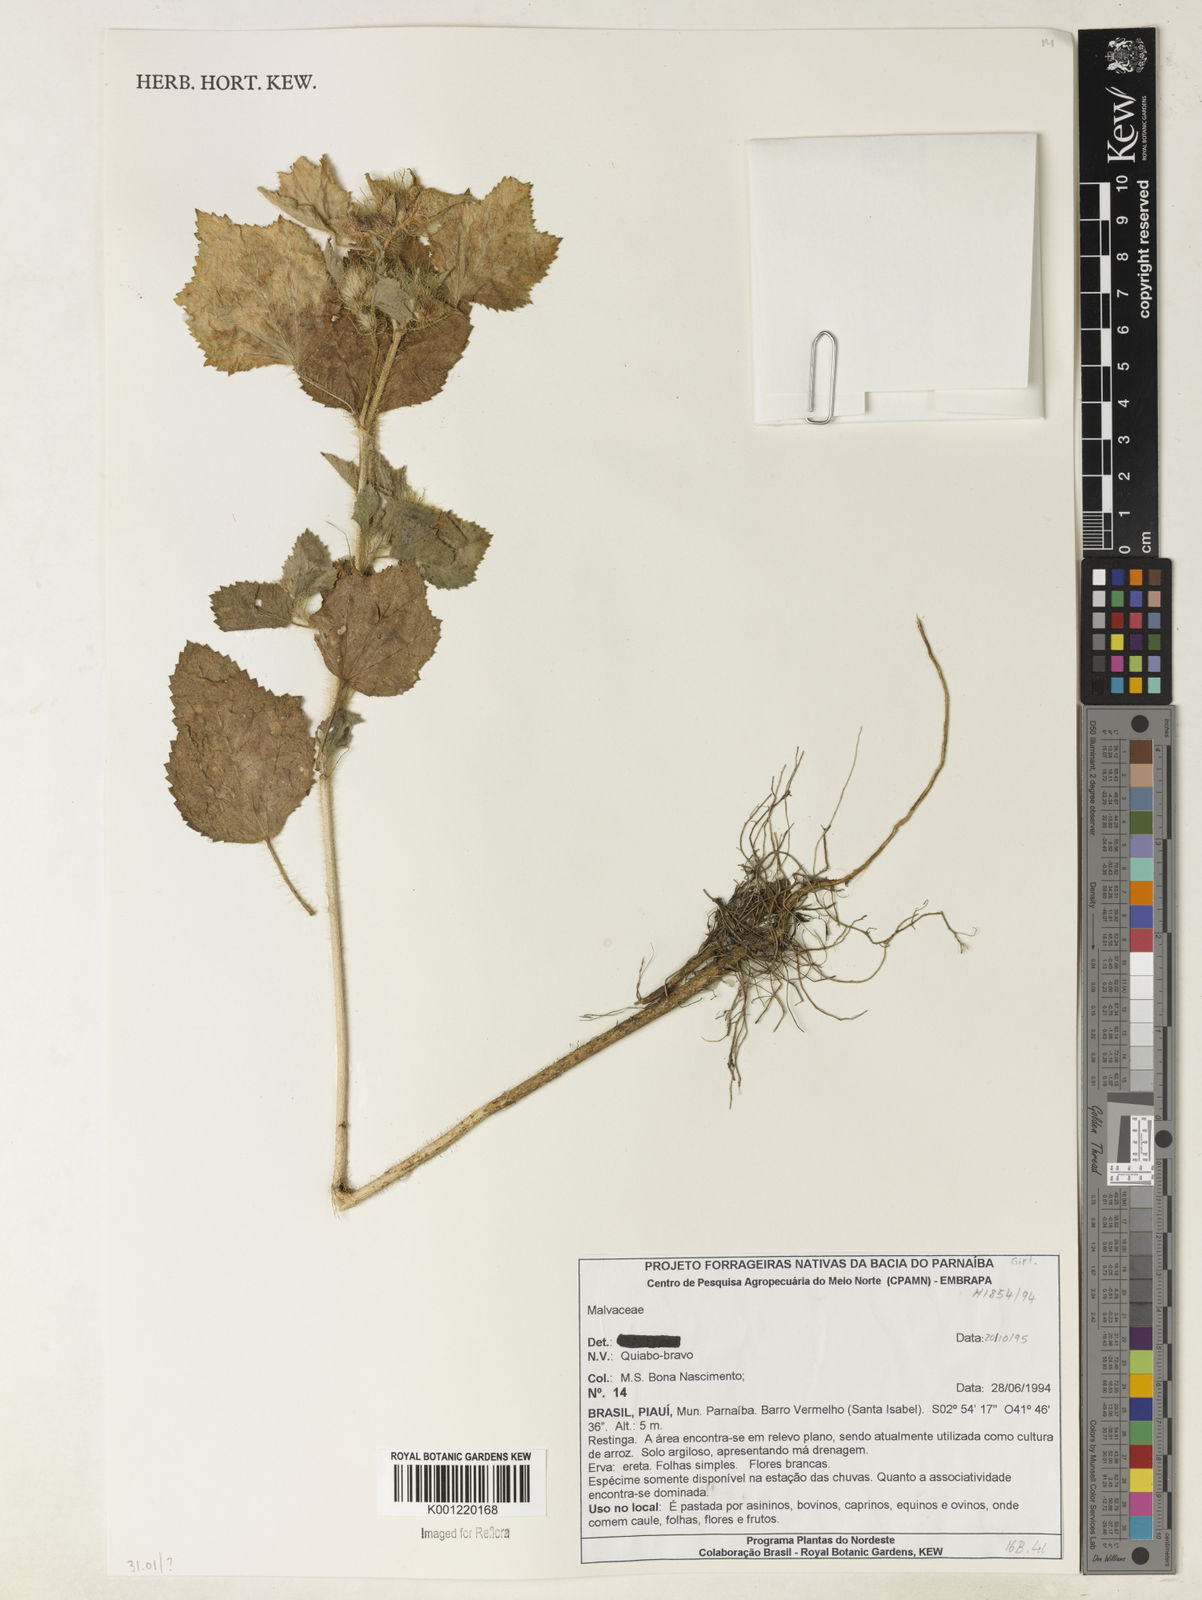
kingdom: Plantae
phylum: Tracheophyta
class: Magnoliopsida
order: Malvales
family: Malvaceae
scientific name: Malvaceae
